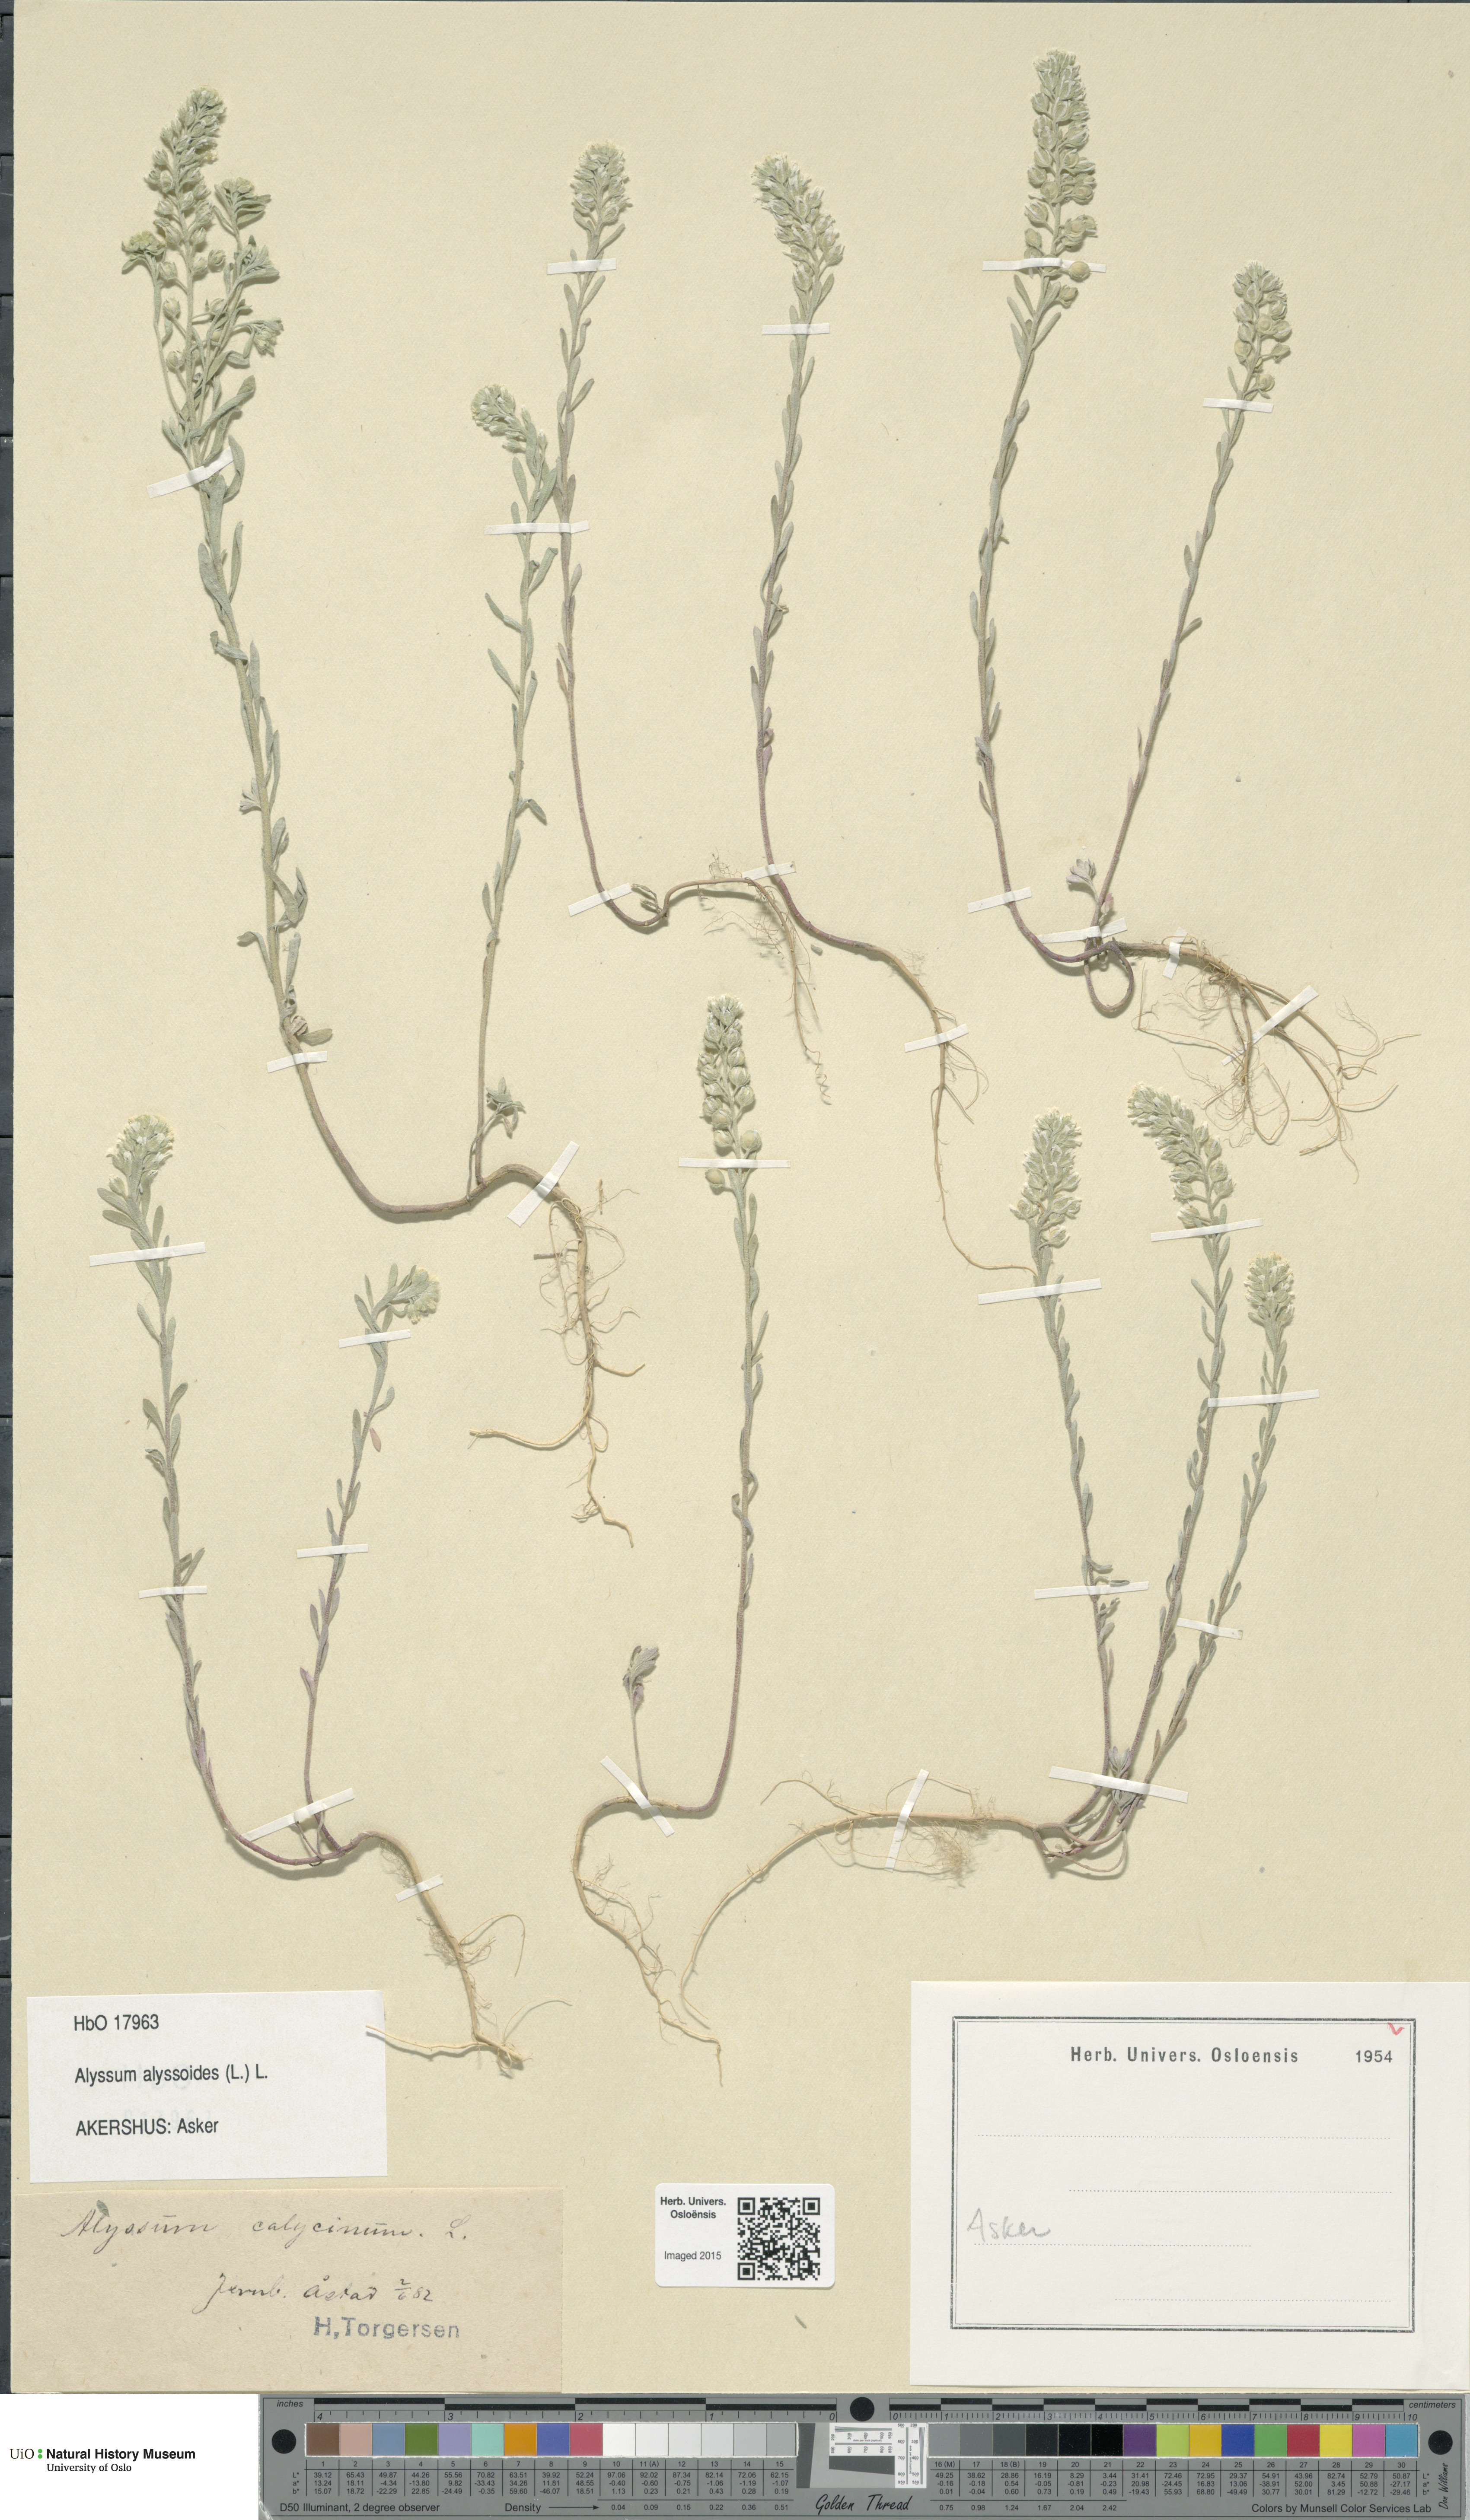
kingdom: Plantae
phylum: Tracheophyta
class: Magnoliopsida
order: Brassicales
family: Brassicaceae
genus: Alyssum
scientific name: Alyssum alyssoides
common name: Small alison
